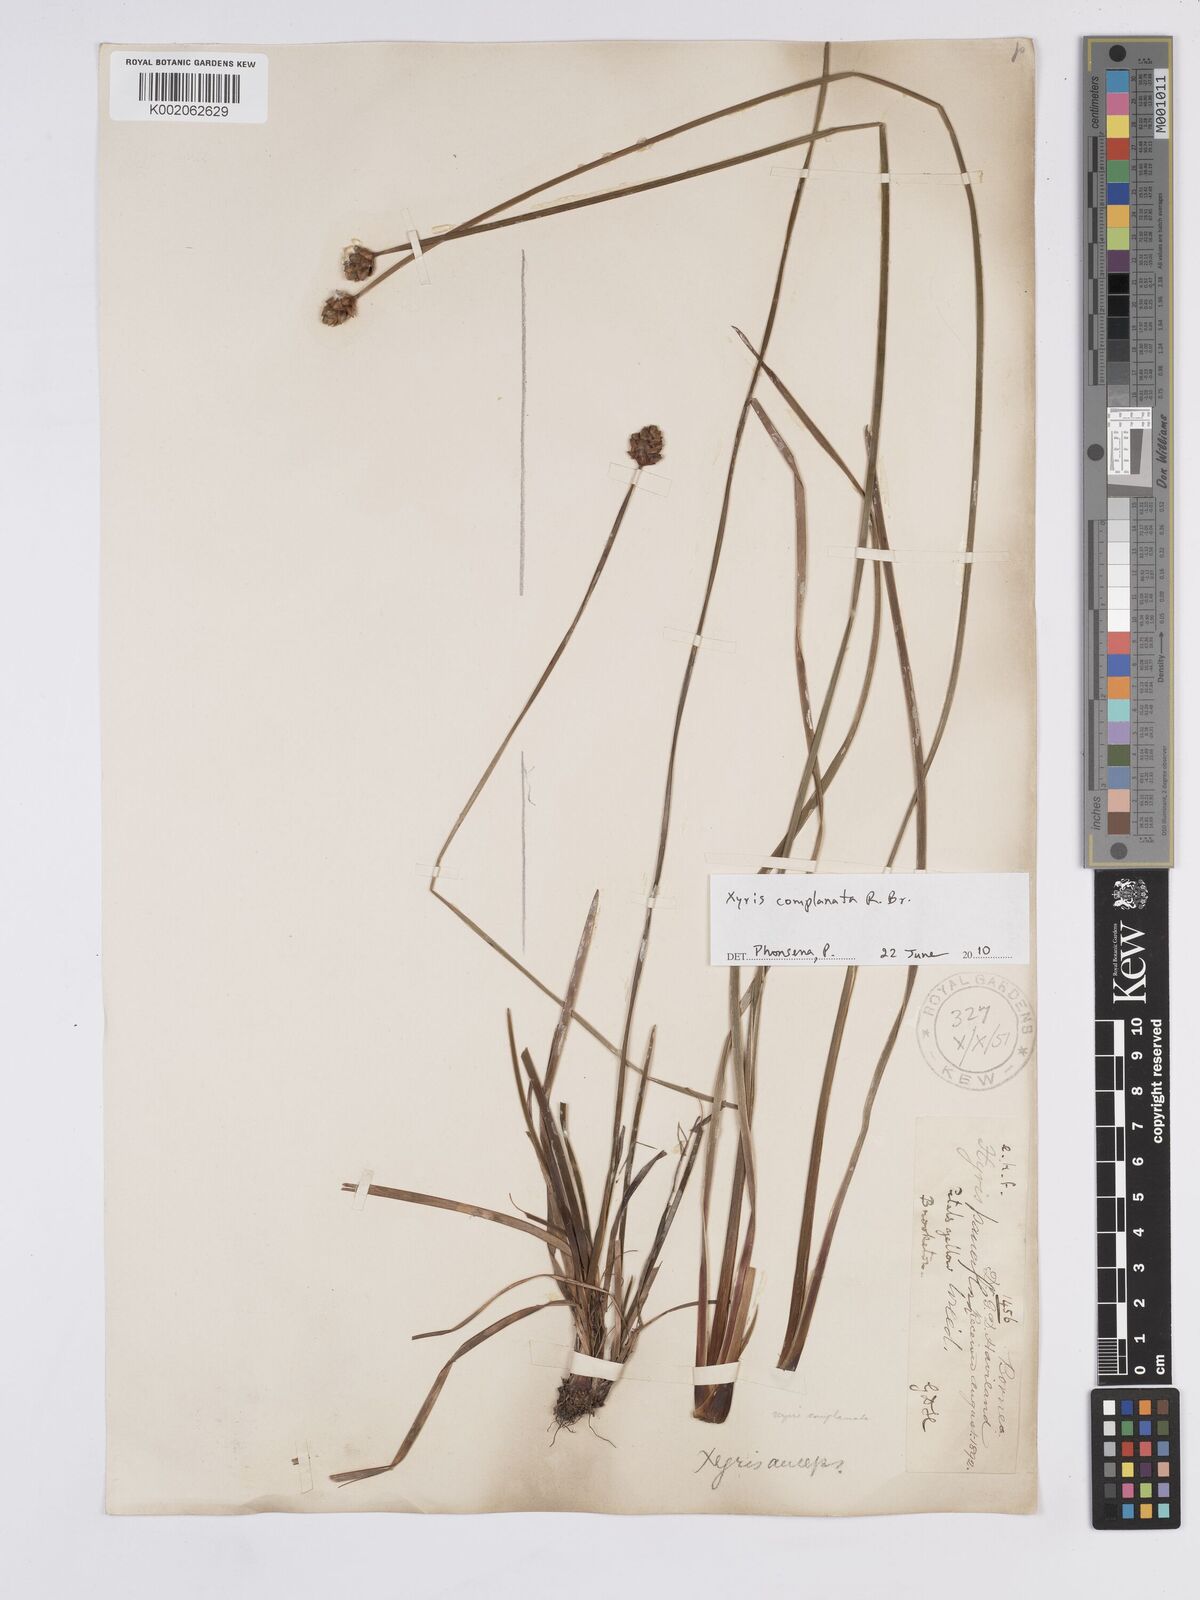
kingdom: Plantae
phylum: Tracheophyta
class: Liliopsida
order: Poales
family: Xyridaceae
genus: Xyris
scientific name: Xyris complanata
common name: Hawai'i yelloweyed grass
